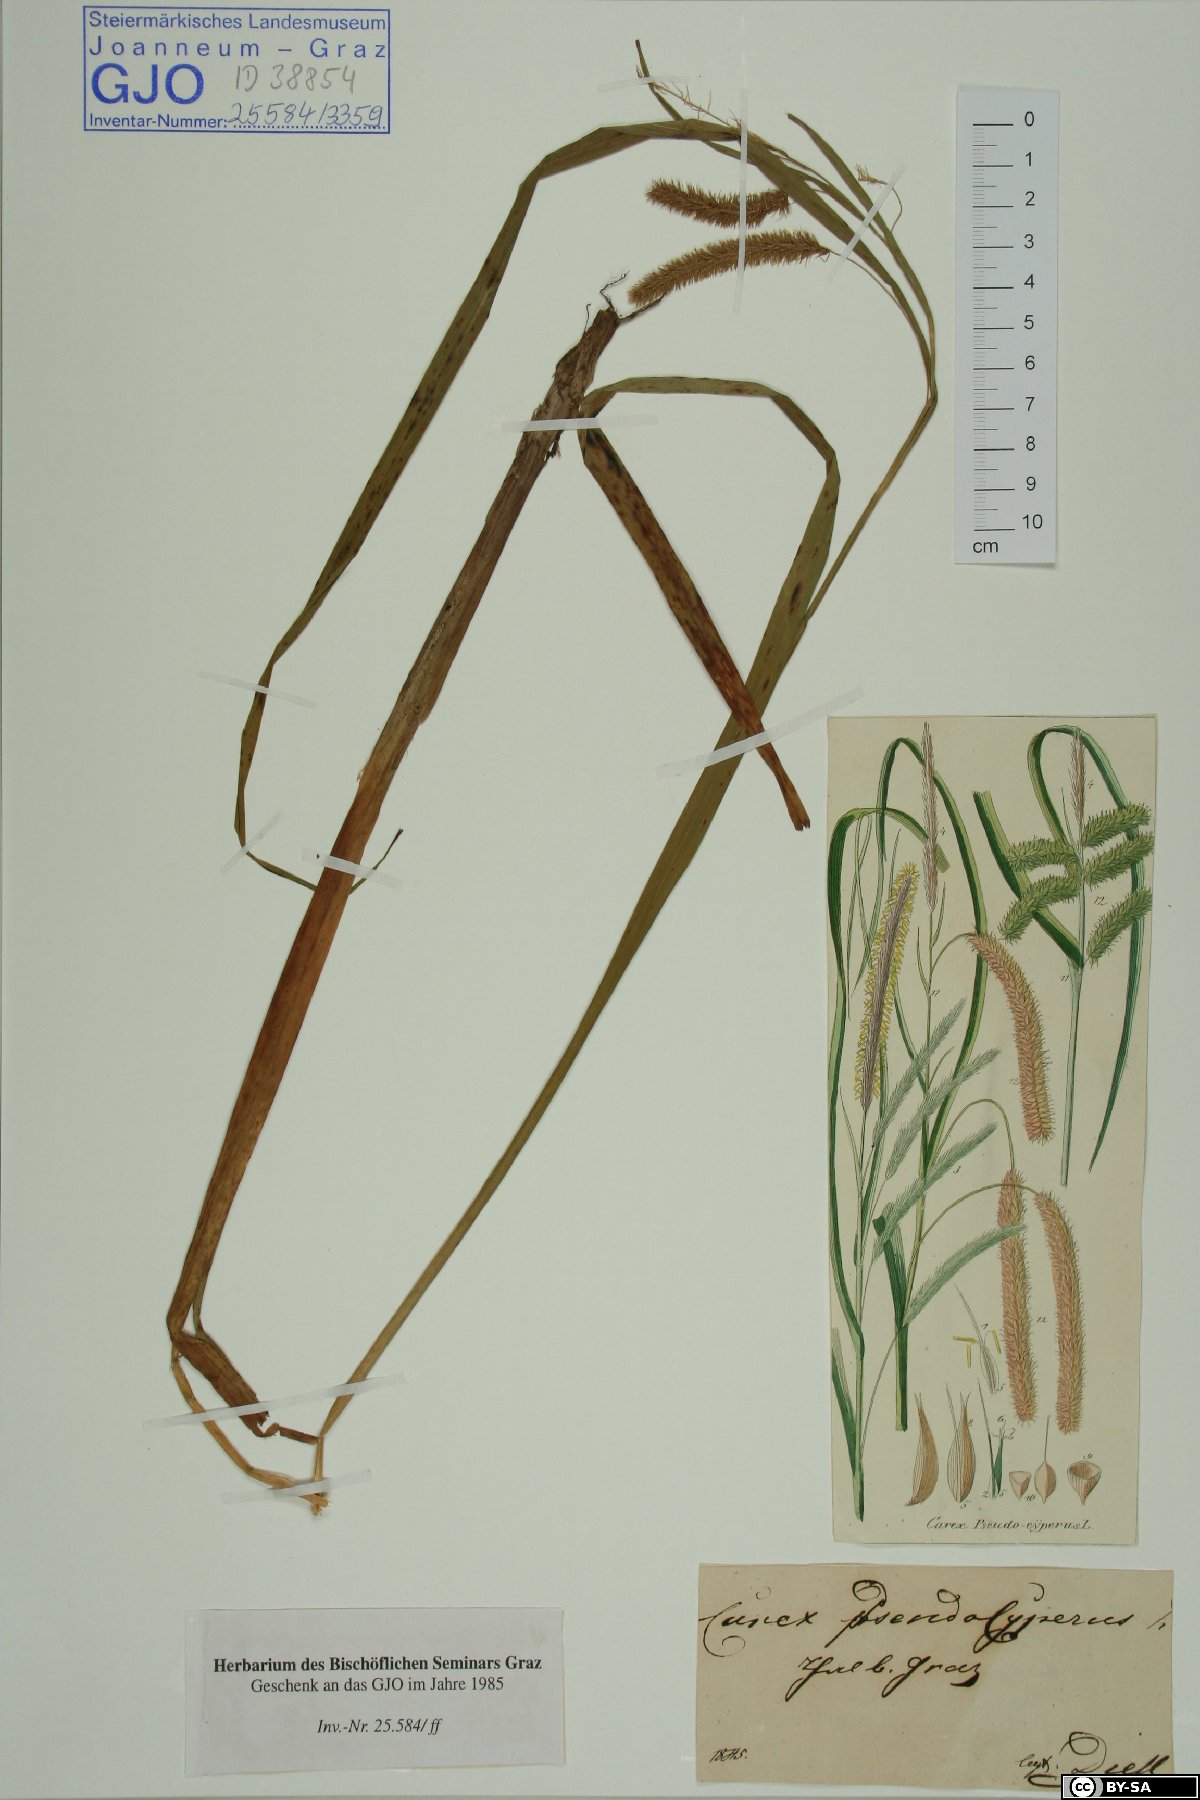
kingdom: Plantae
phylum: Tracheophyta
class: Liliopsida
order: Poales
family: Cyperaceae
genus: Carex
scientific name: Carex pseudocyperus
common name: Cyperus sedge
